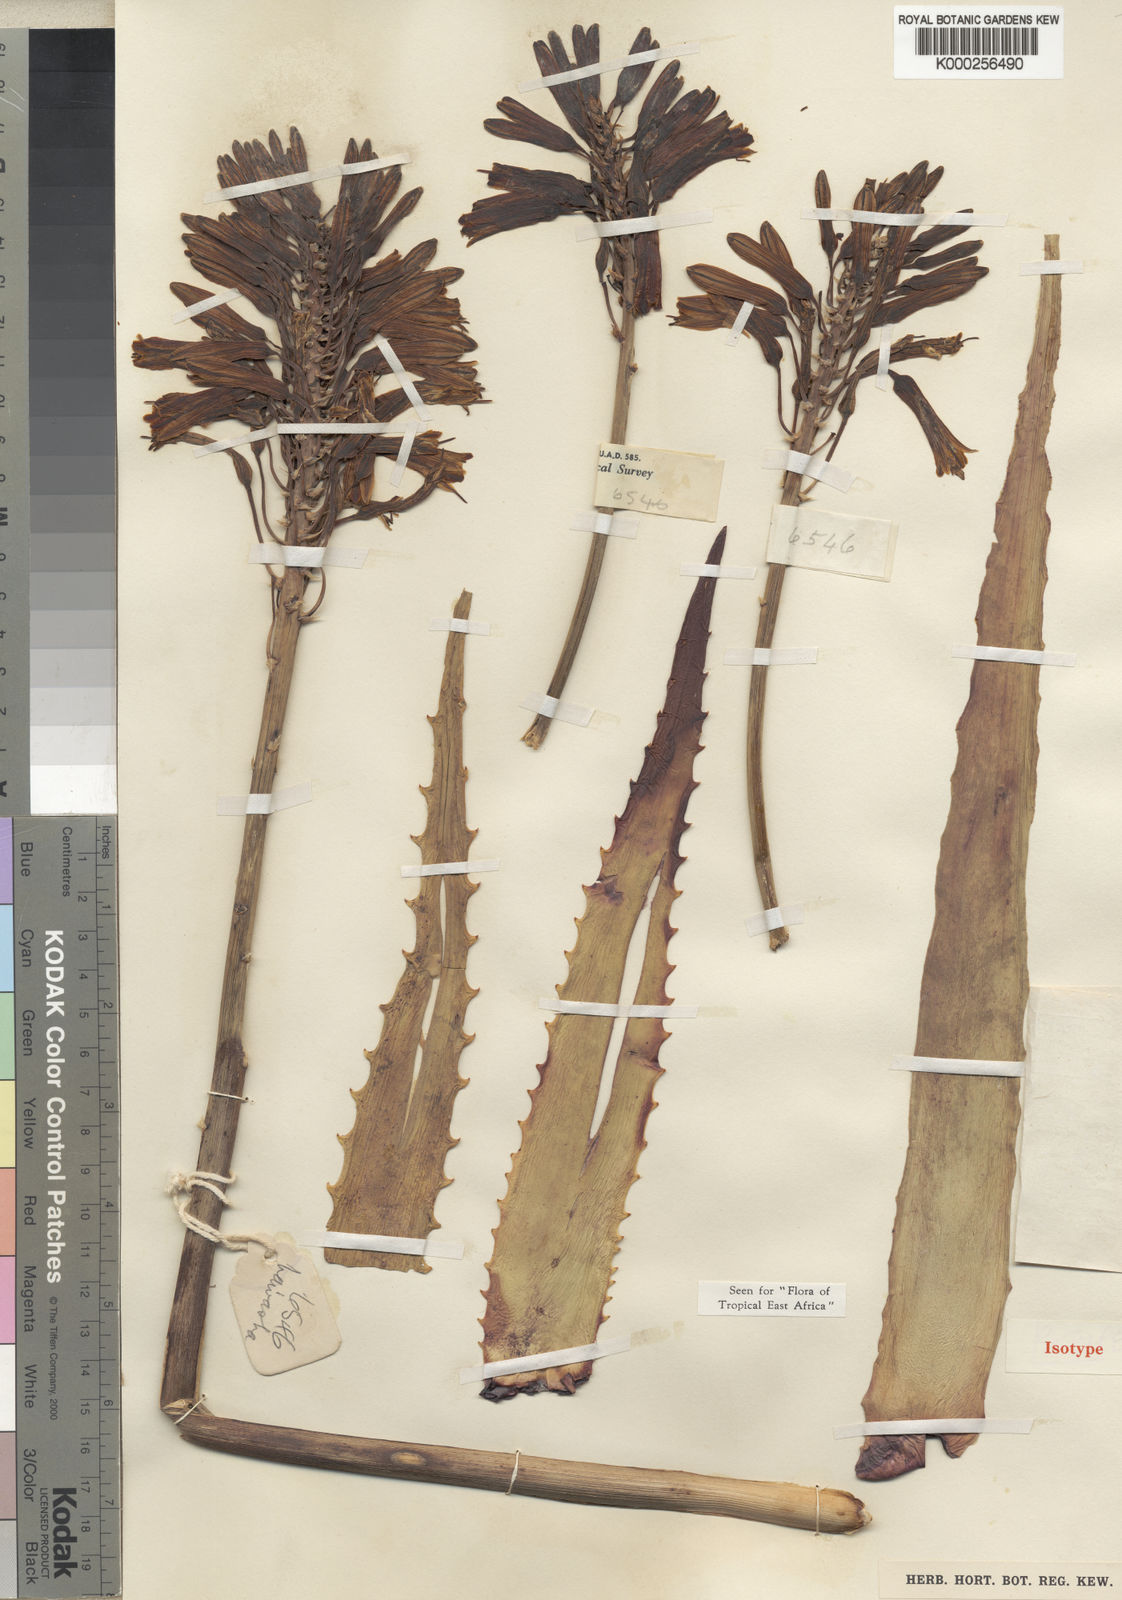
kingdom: Plantae
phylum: Tracheophyta
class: Liliopsida
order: Asparagales
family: Asphodelaceae
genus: Aloe
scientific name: Aloe kedongensis
